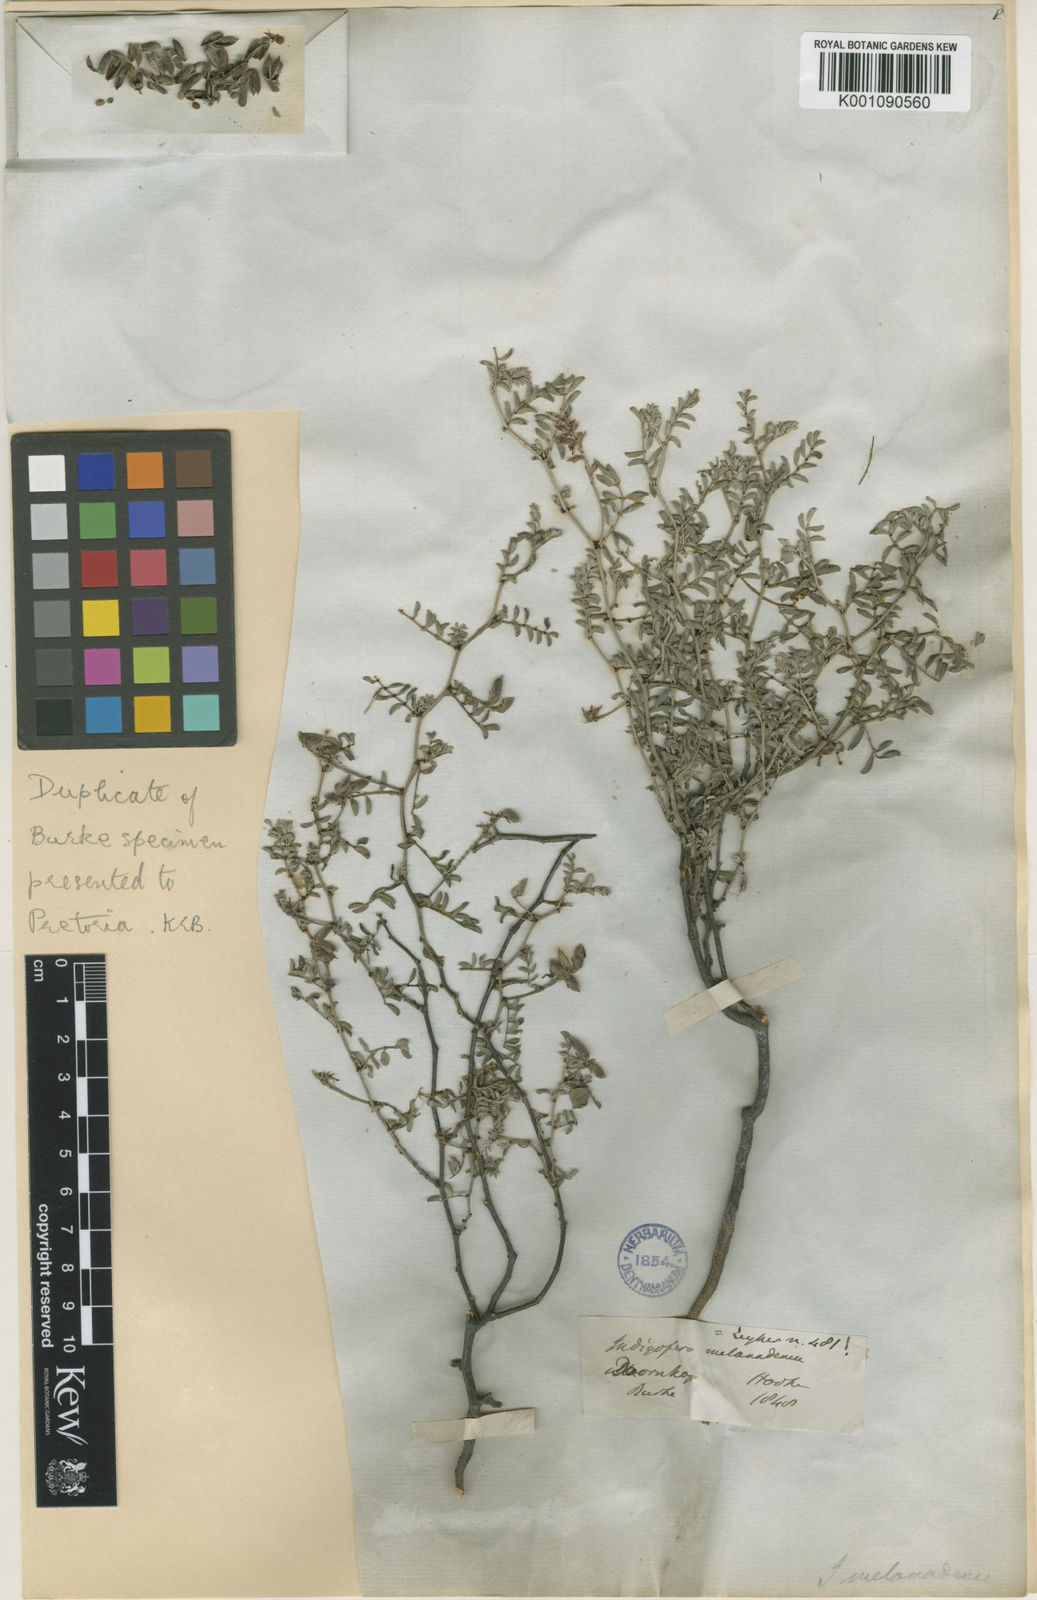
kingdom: Plantae
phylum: Tracheophyta
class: Magnoliopsida
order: Fabales
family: Fabaceae
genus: Indigofera
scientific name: Indigofera melanadenia
